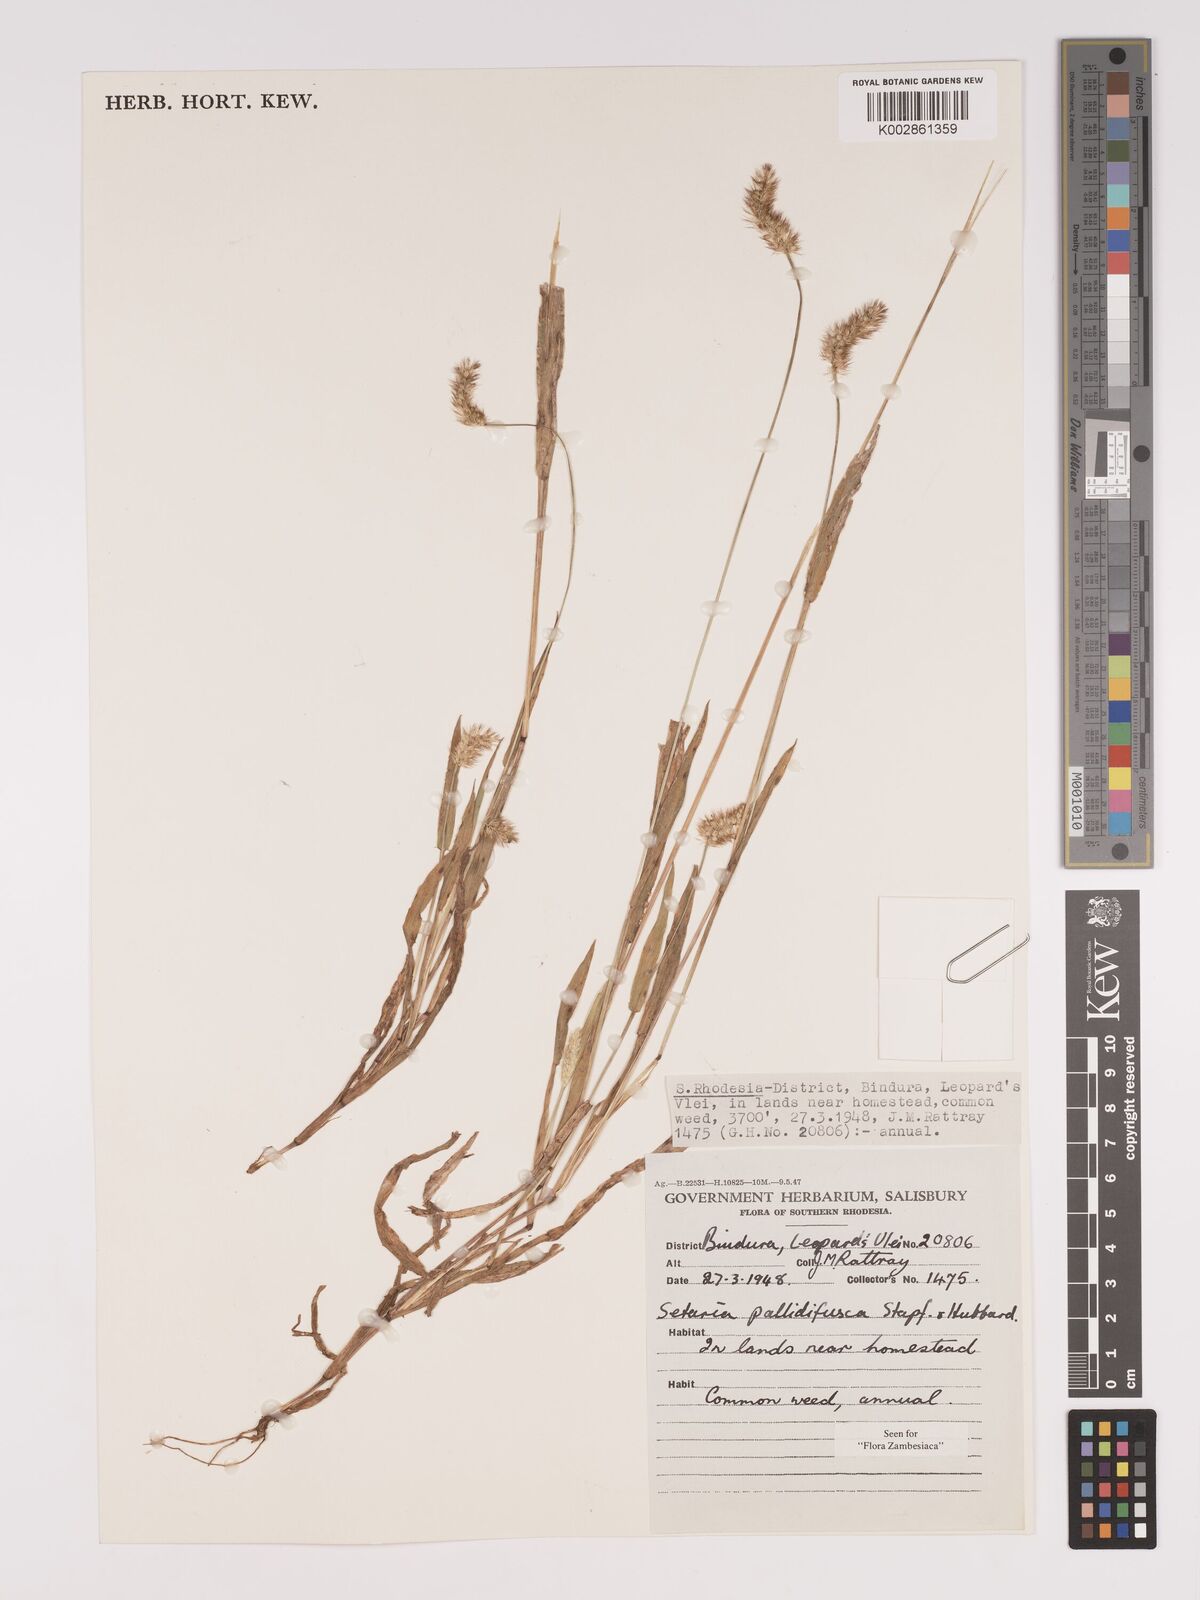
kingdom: Plantae
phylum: Tracheophyta
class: Liliopsida
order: Poales
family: Poaceae
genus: Setaria
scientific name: Setaria pumila
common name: Yellow bristle-grass
